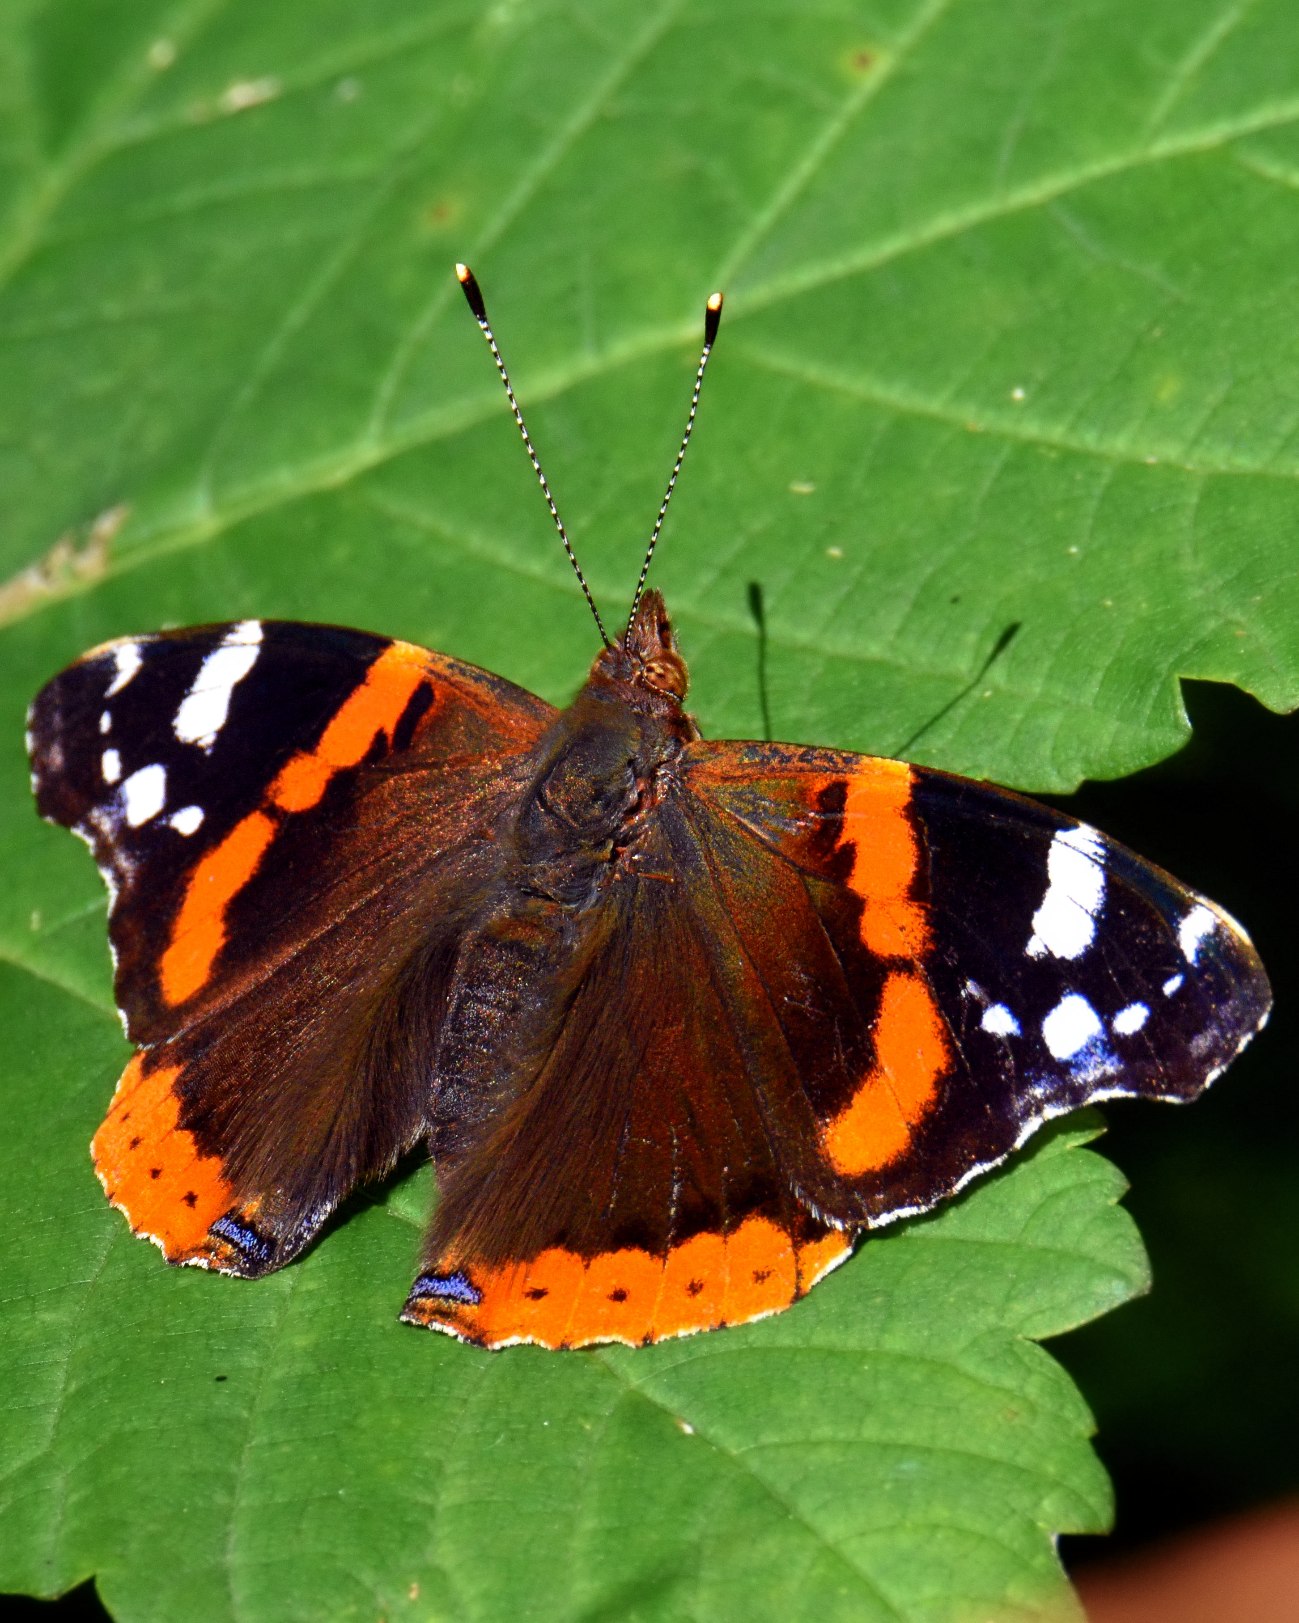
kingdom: Animalia
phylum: Arthropoda
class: Insecta
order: Lepidoptera
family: Nymphalidae
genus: Vanessa
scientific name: Vanessa atalanta
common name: Admiral
